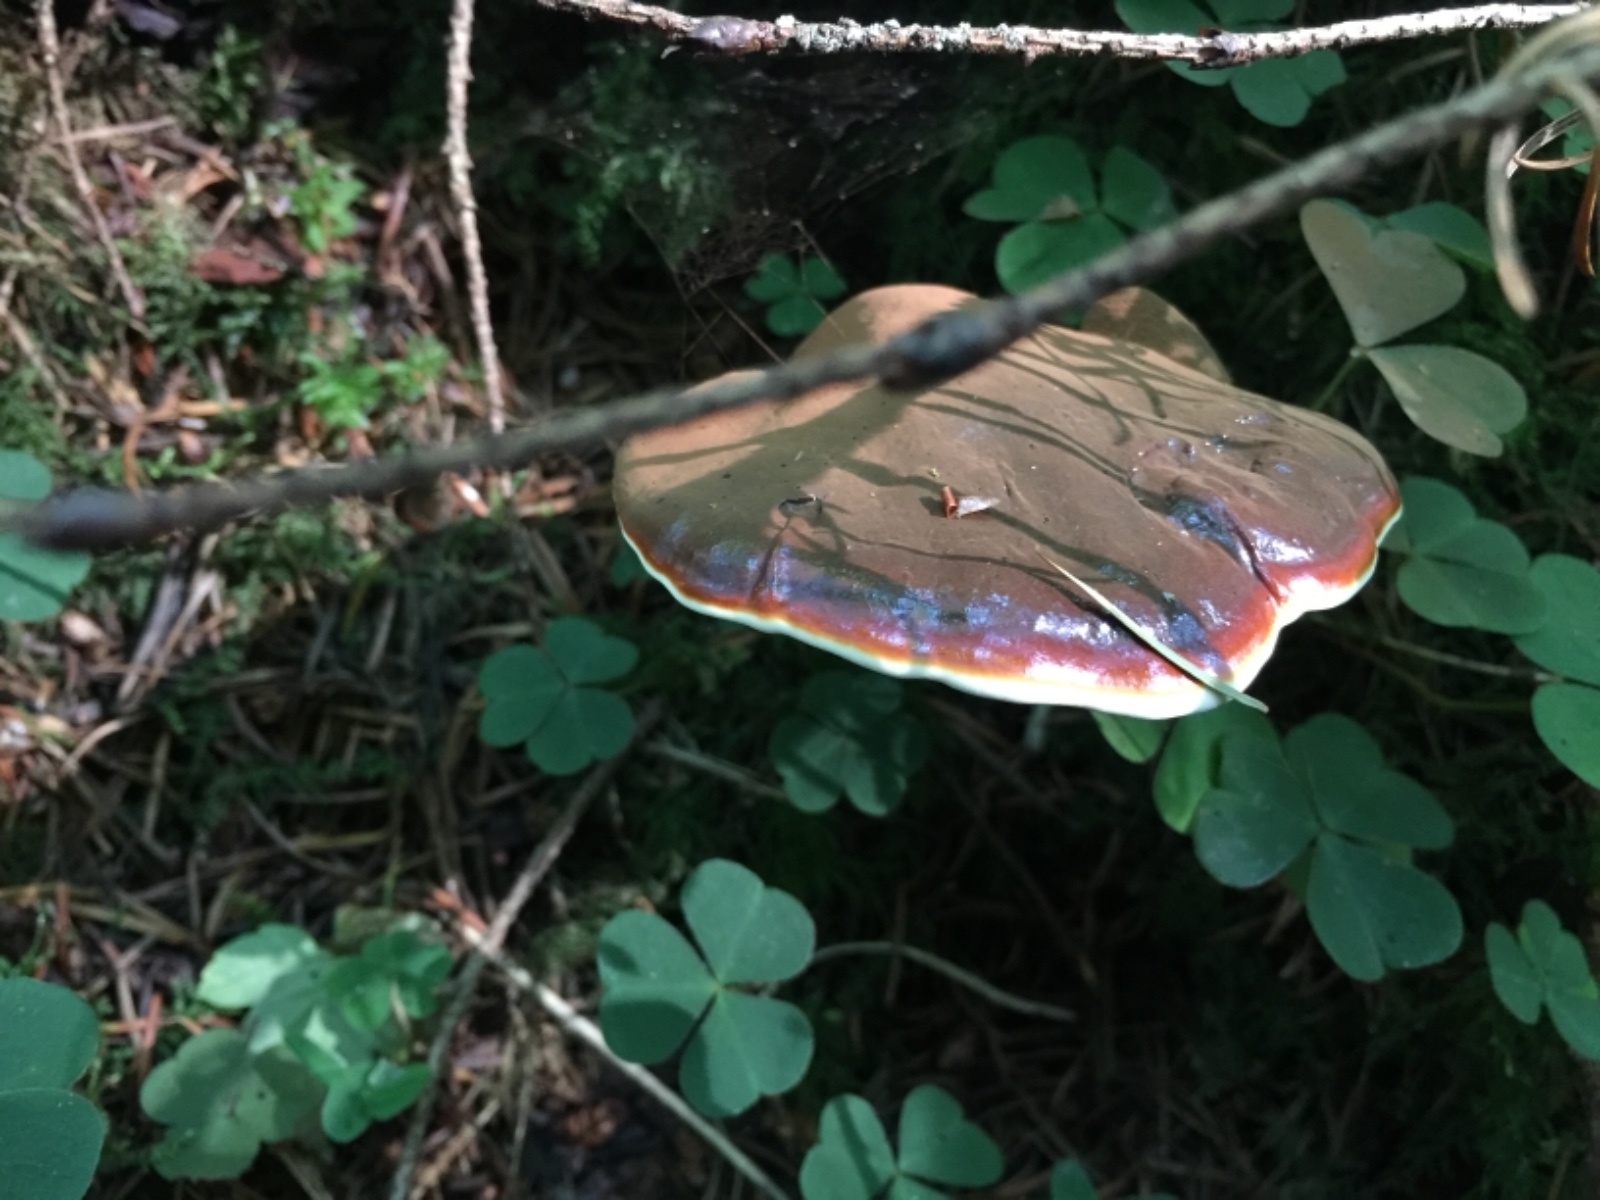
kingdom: Fungi
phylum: Basidiomycota
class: Agaricomycetes
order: Polyporales
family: Polyporaceae
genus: Ganoderma
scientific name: Ganoderma lucidum
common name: skinnende lakporesvamp
